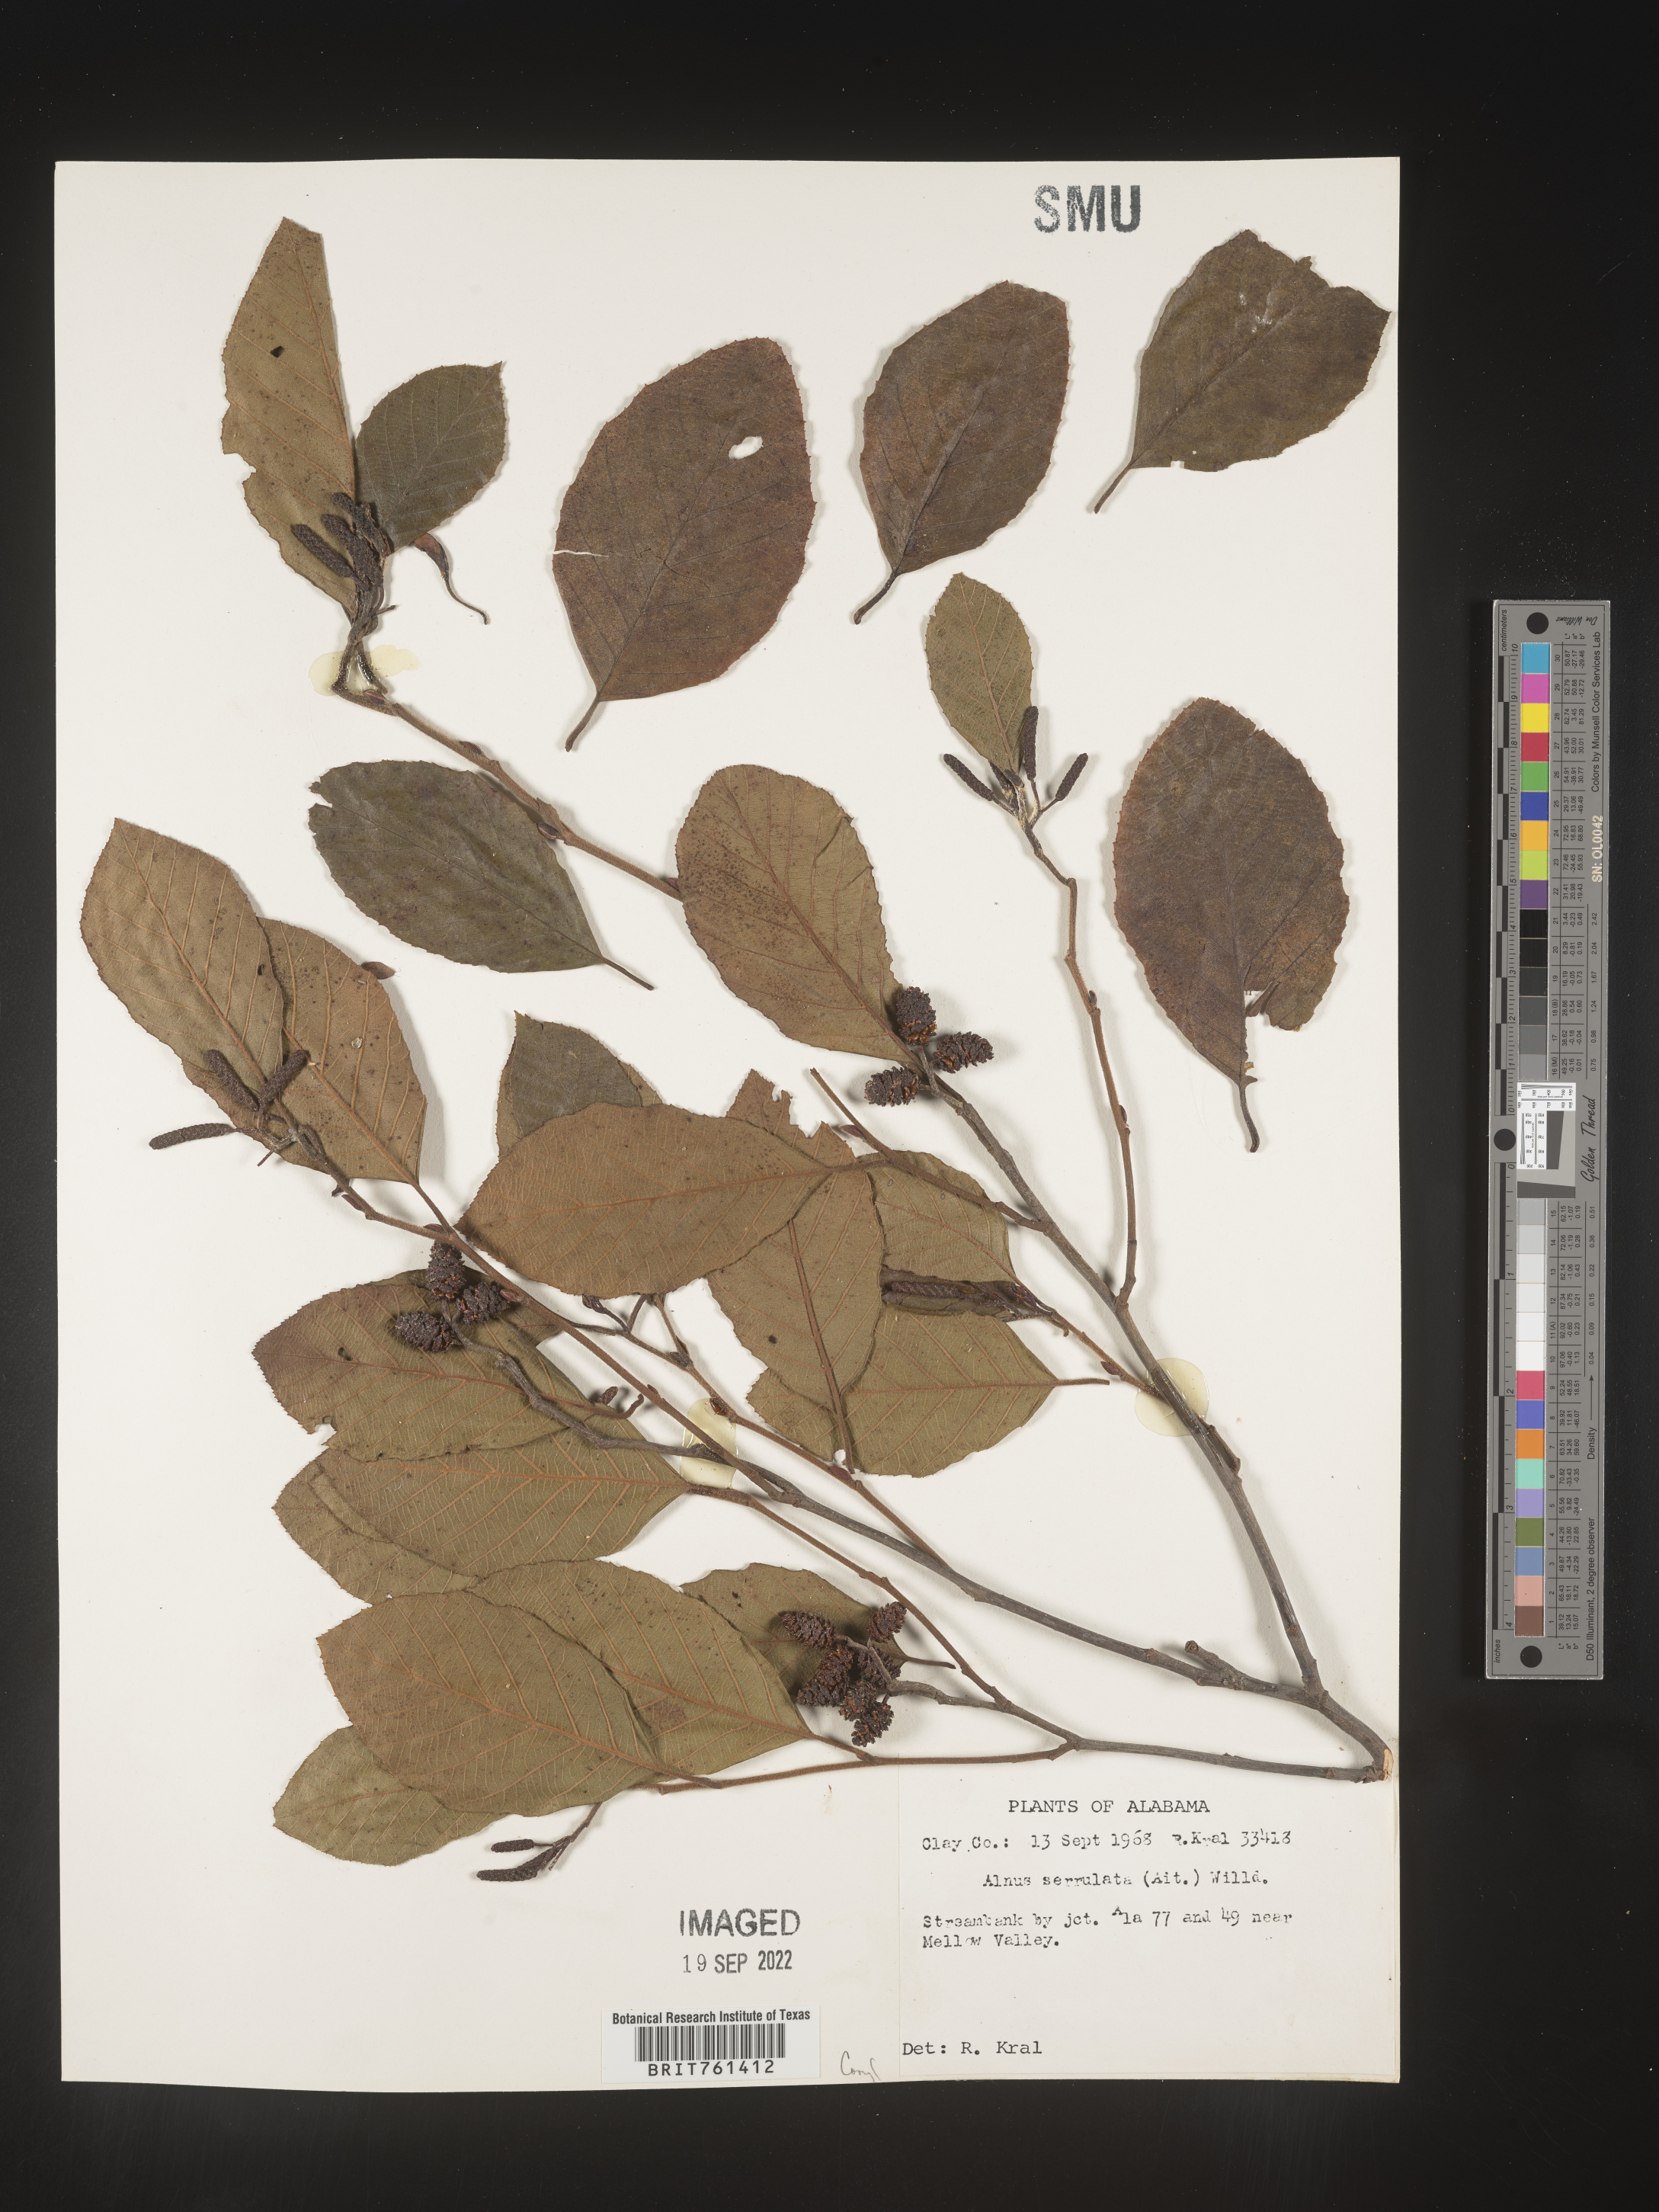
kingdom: Plantae
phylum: Tracheophyta
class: Magnoliopsida
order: Fagales
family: Betulaceae
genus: Alnus
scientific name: Alnus serrulata
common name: Hazel alder
